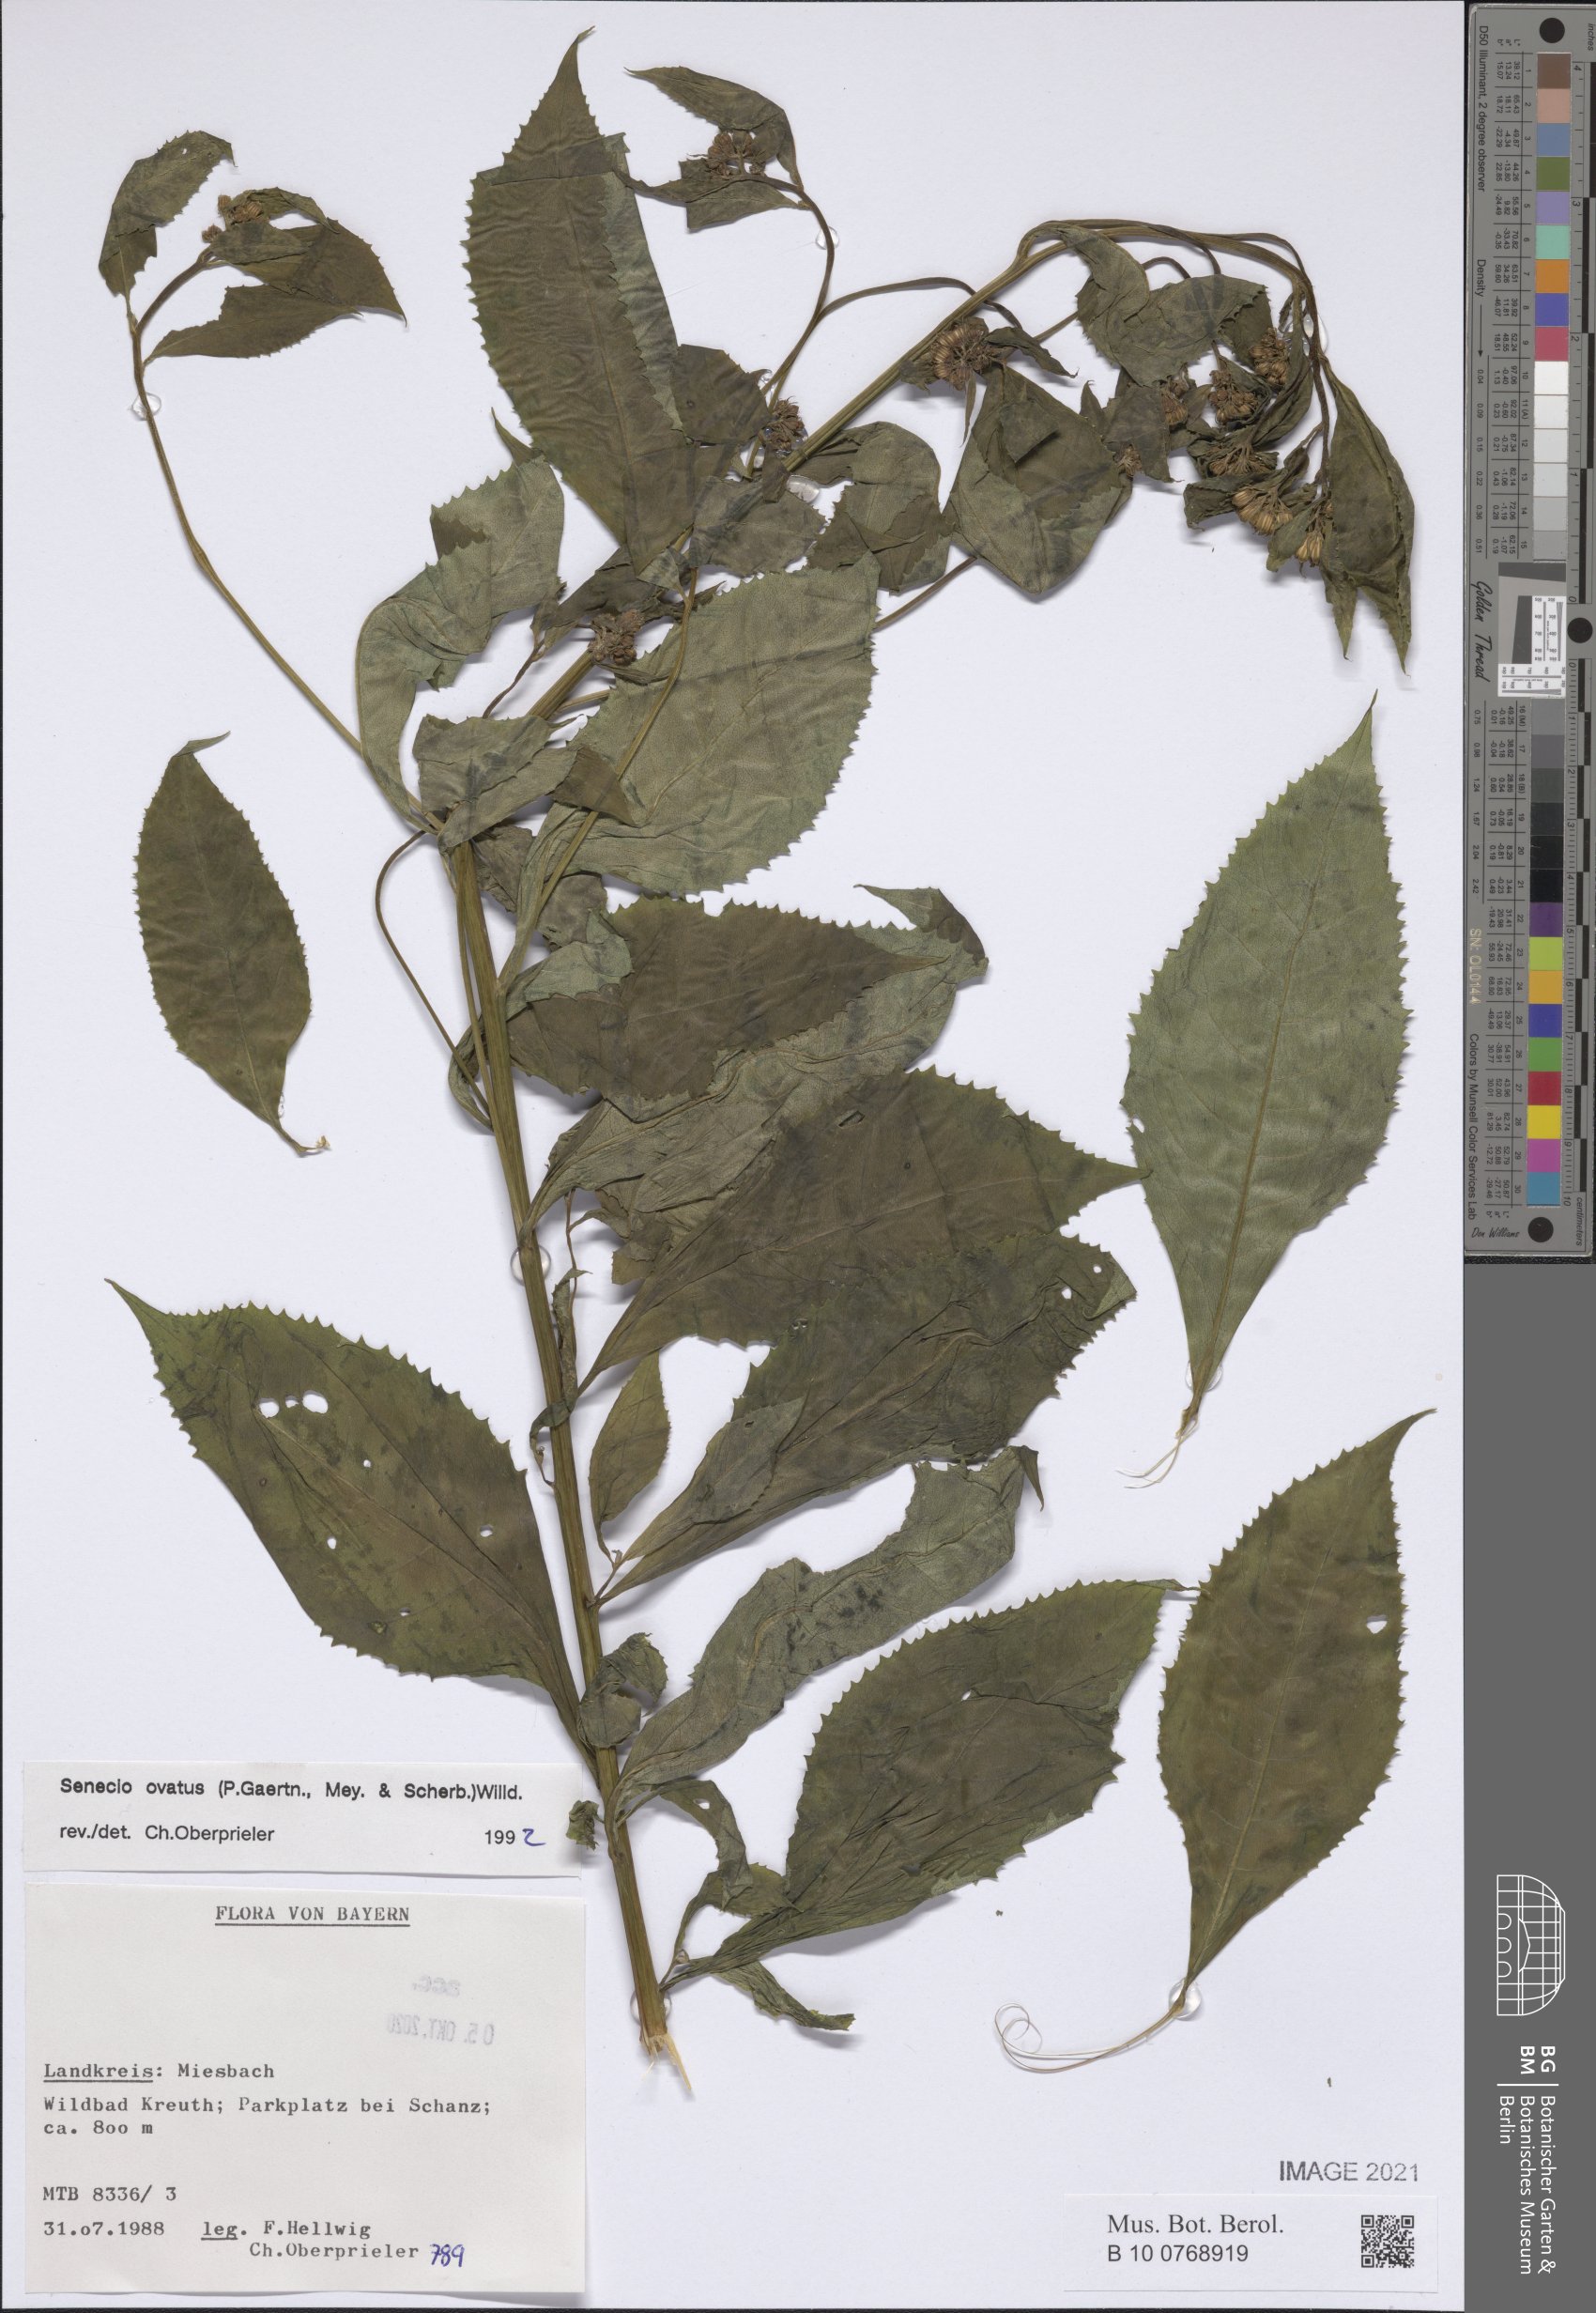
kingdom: Plantae
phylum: Tracheophyta
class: Magnoliopsida
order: Asterales
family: Asteraceae
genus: Senecio
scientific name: Senecio ovatus
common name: Wood ragwort
